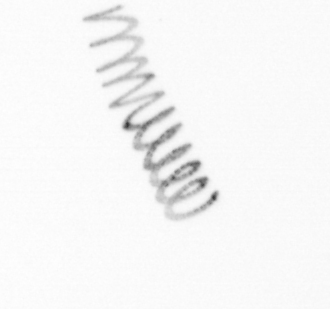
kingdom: Chromista
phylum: Ochrophyta
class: Bacillariophyceae
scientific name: Bacillariophyceae
